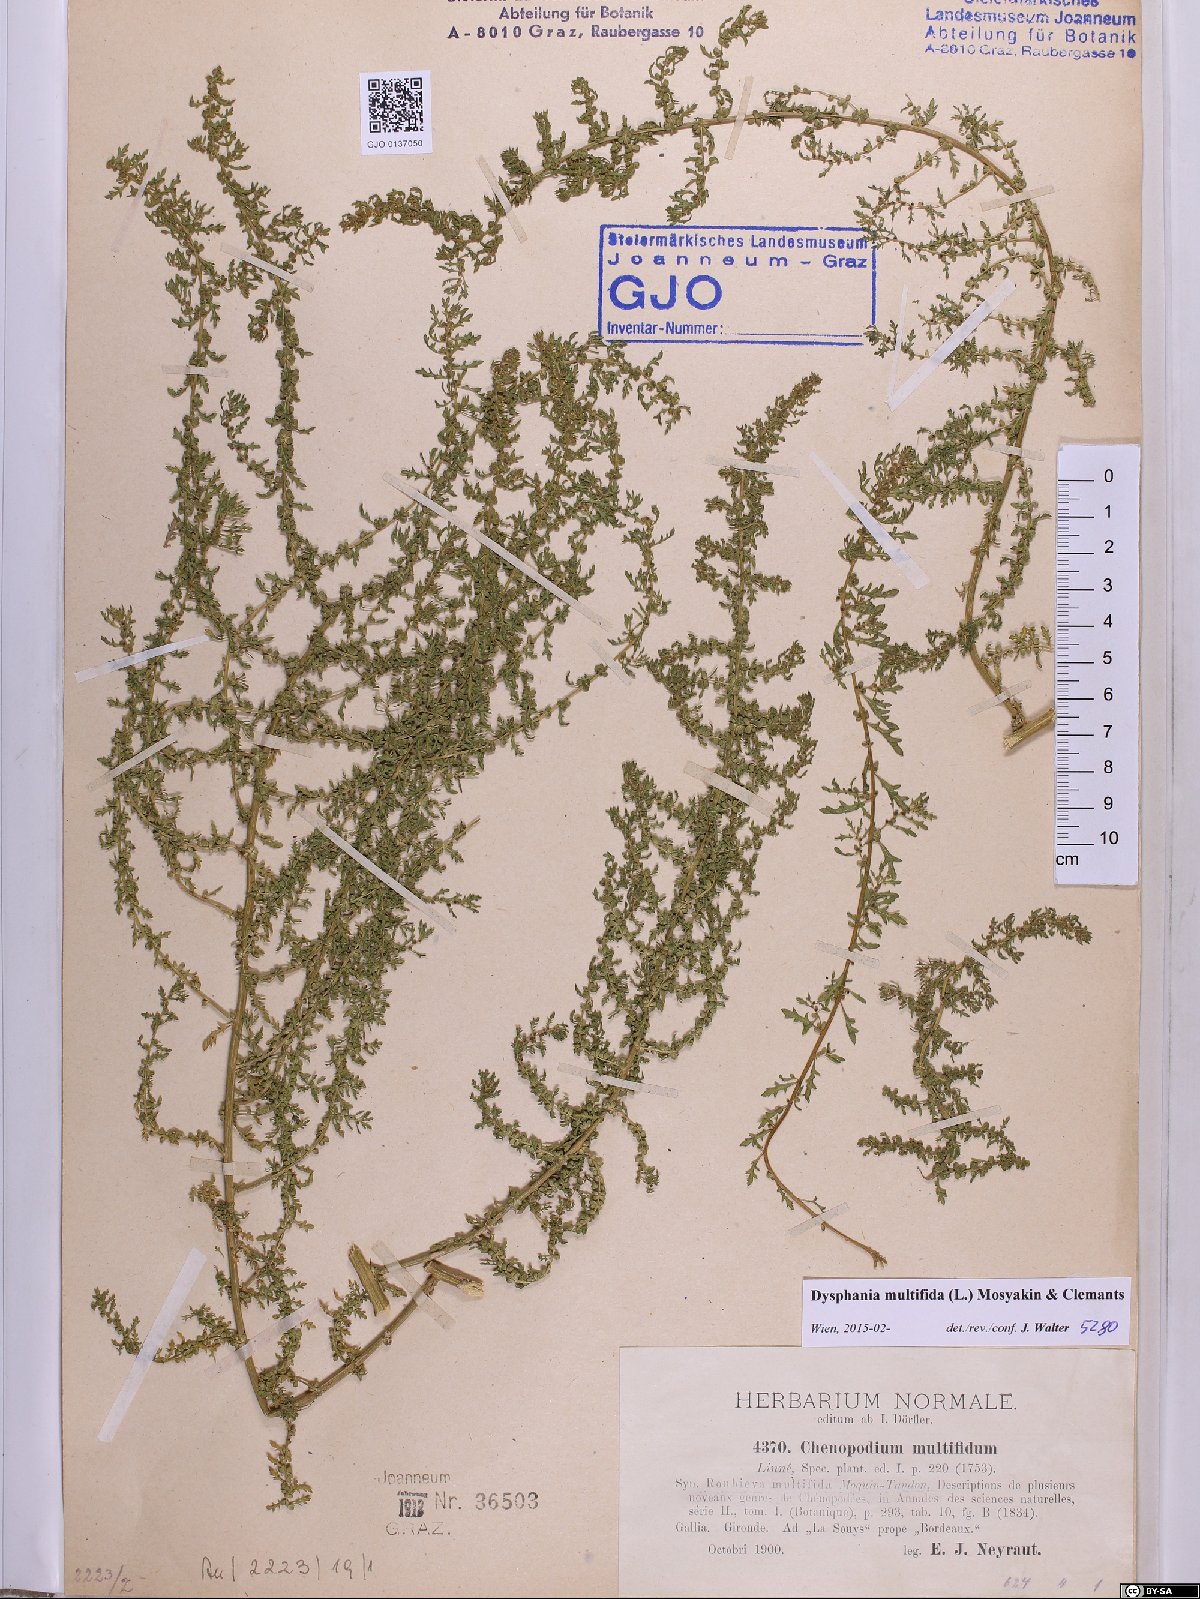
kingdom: Plantae
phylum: Tracheophyta
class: Magnoliopsida
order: Caryophyllales
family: Amaranthaceae
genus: Dysphania
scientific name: Dysphania multifida
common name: Cutleaf goosefoot
